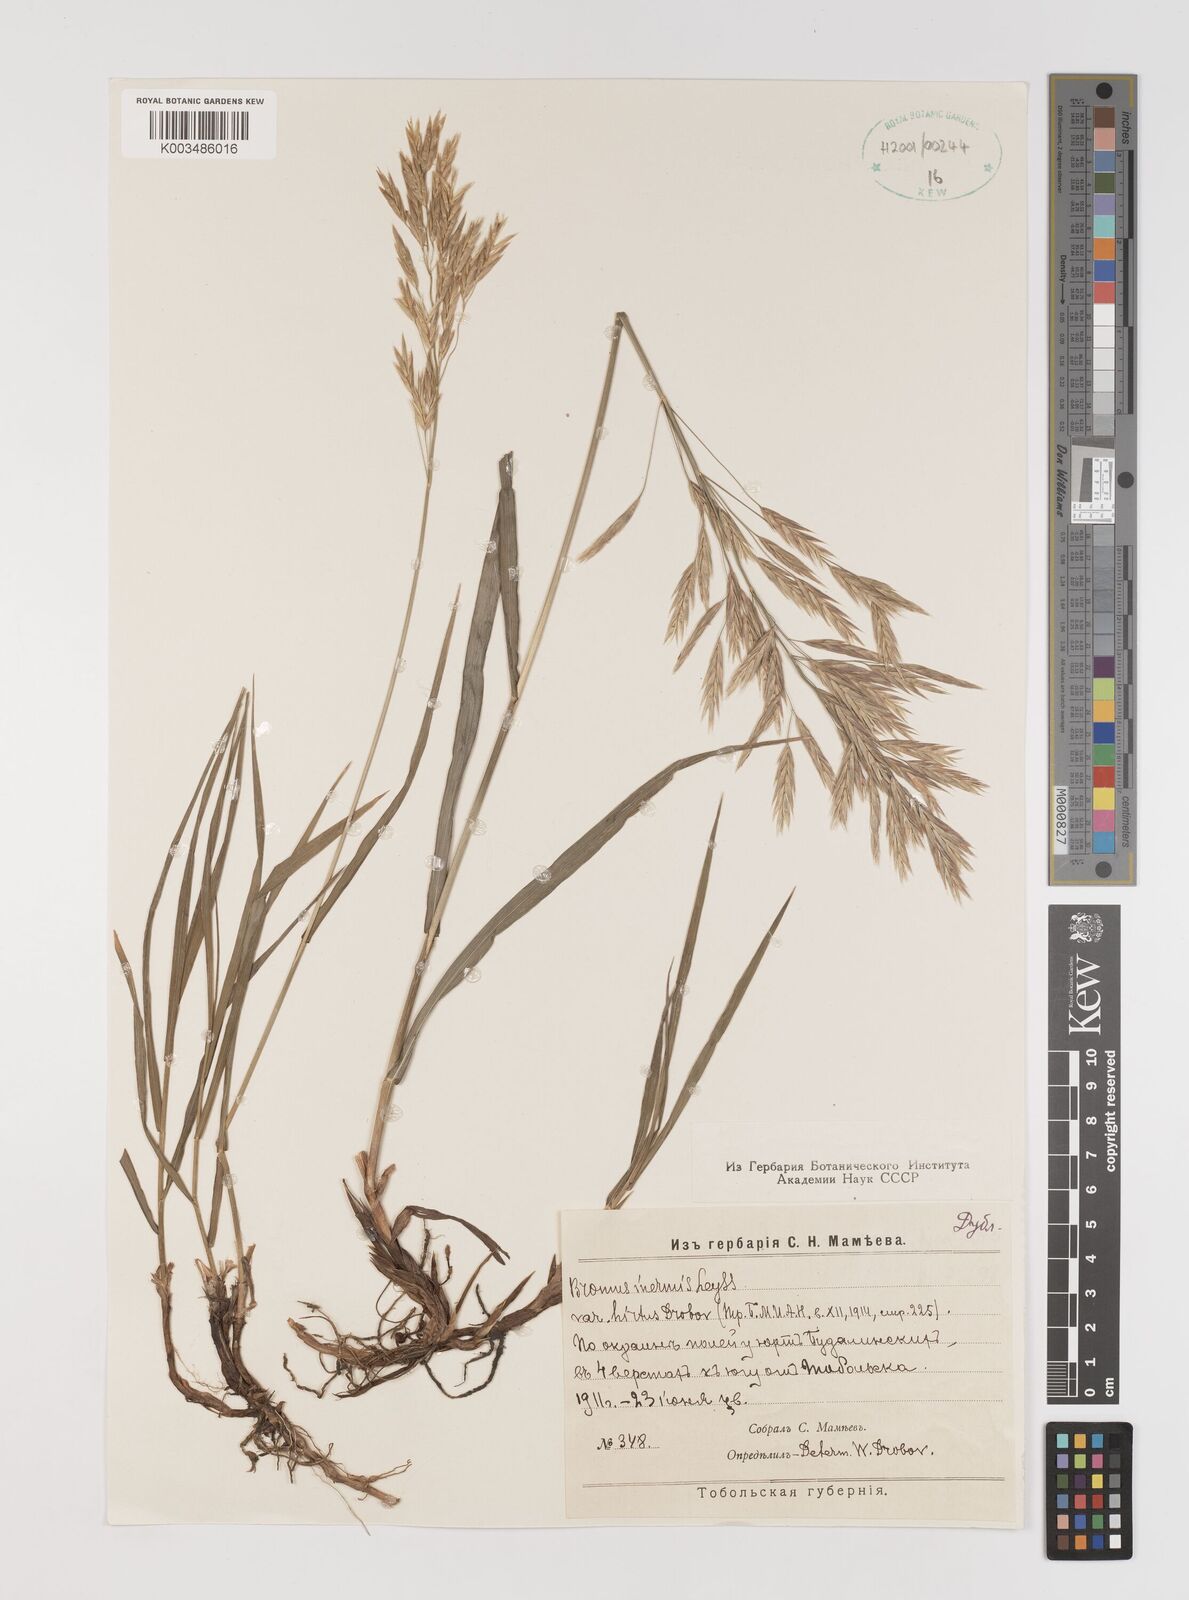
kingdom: Plantae
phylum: Tracheophyta
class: Liliopsida
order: Poales
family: Poaceae
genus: Bromus
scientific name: Bromus inermis
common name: Smooth brome
